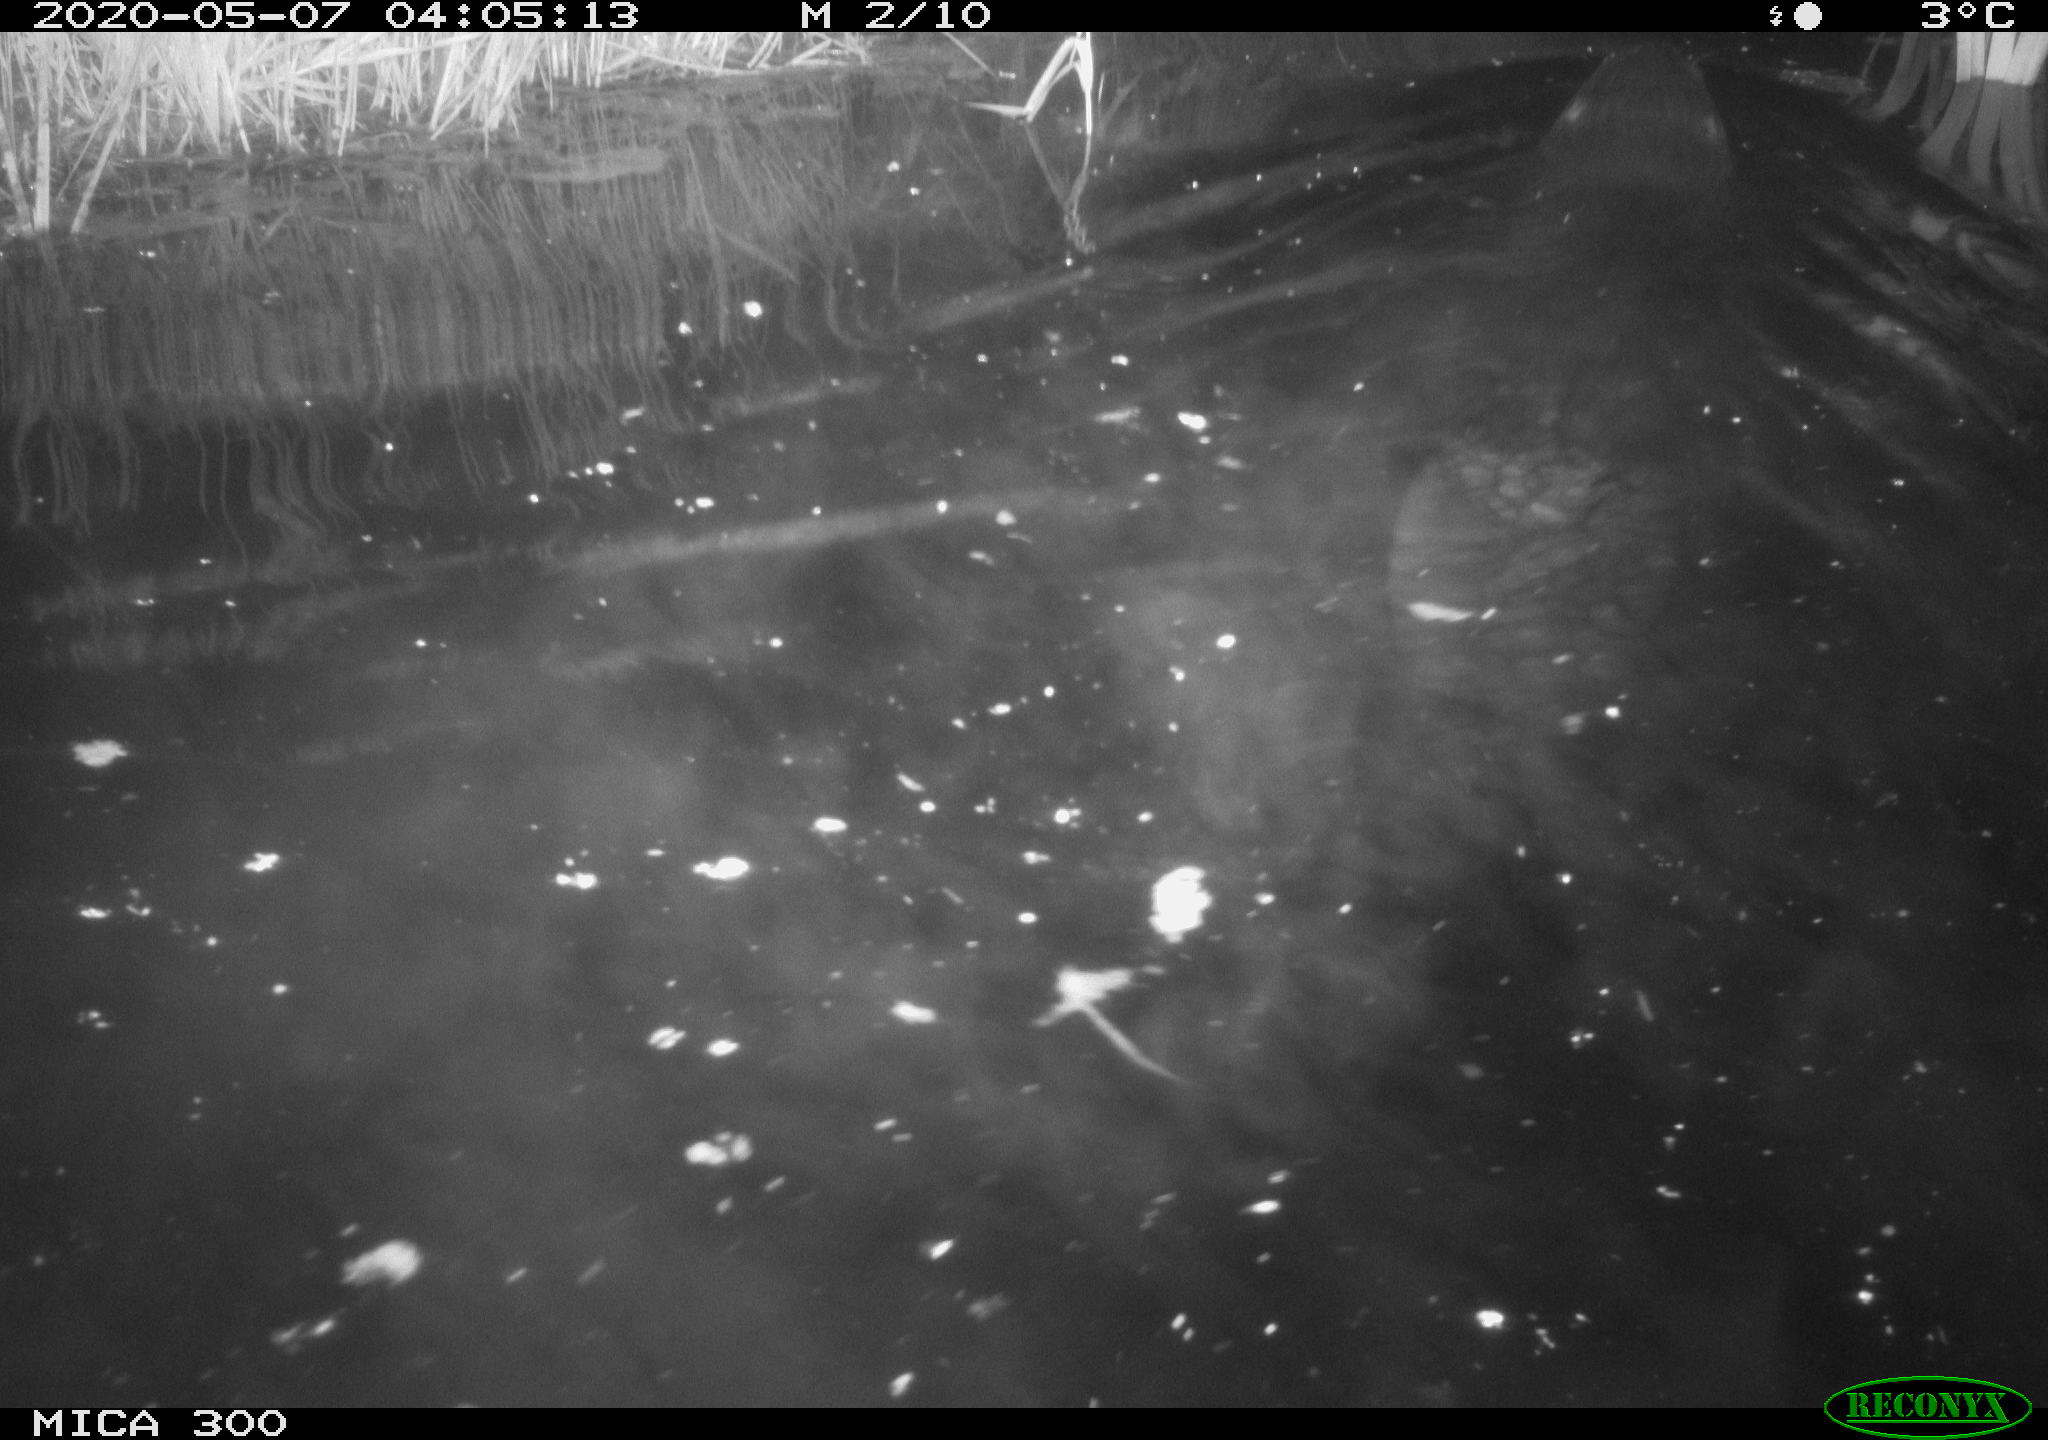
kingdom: Animalia
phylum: Chordata
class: Mammalia
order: Rodentia
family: Castoridae
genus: Castor
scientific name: Castor fiber
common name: Eurasian beaver
